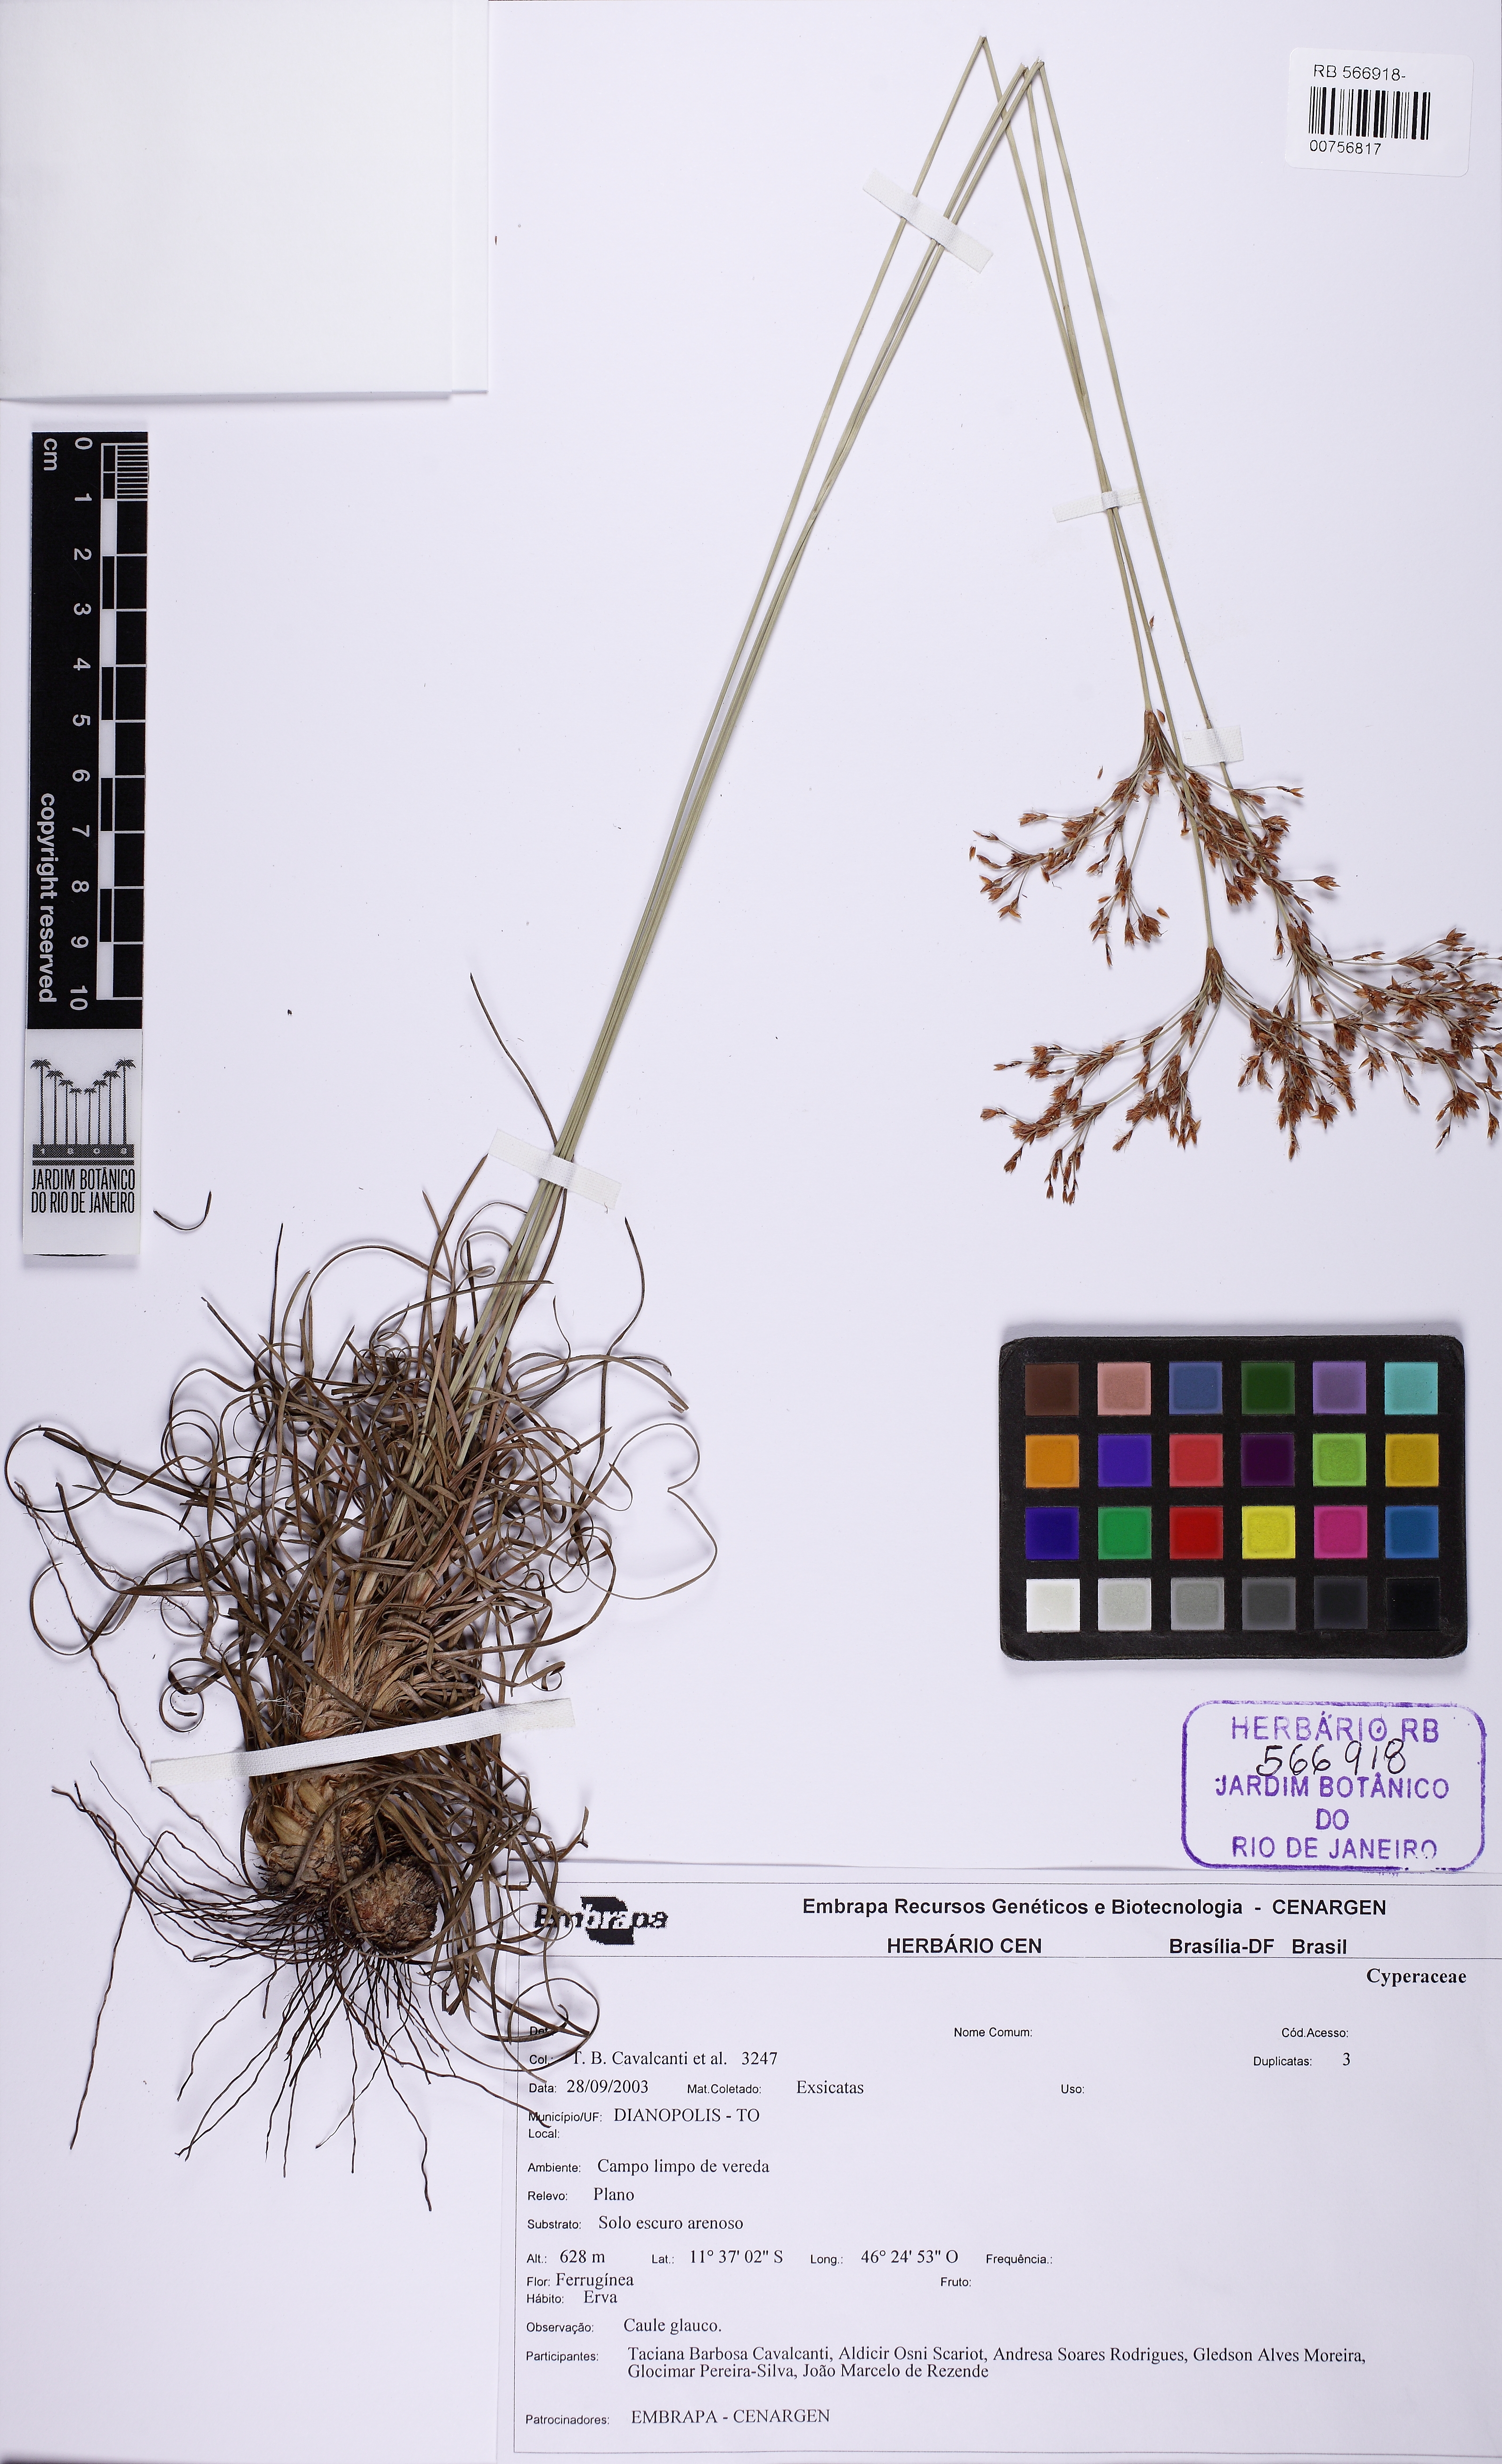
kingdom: Plantae
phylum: Tracheophyta
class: Liliopsida
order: Poales
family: Cyperaceae
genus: Bulbostylis
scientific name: Bulbostylis jacobinae
